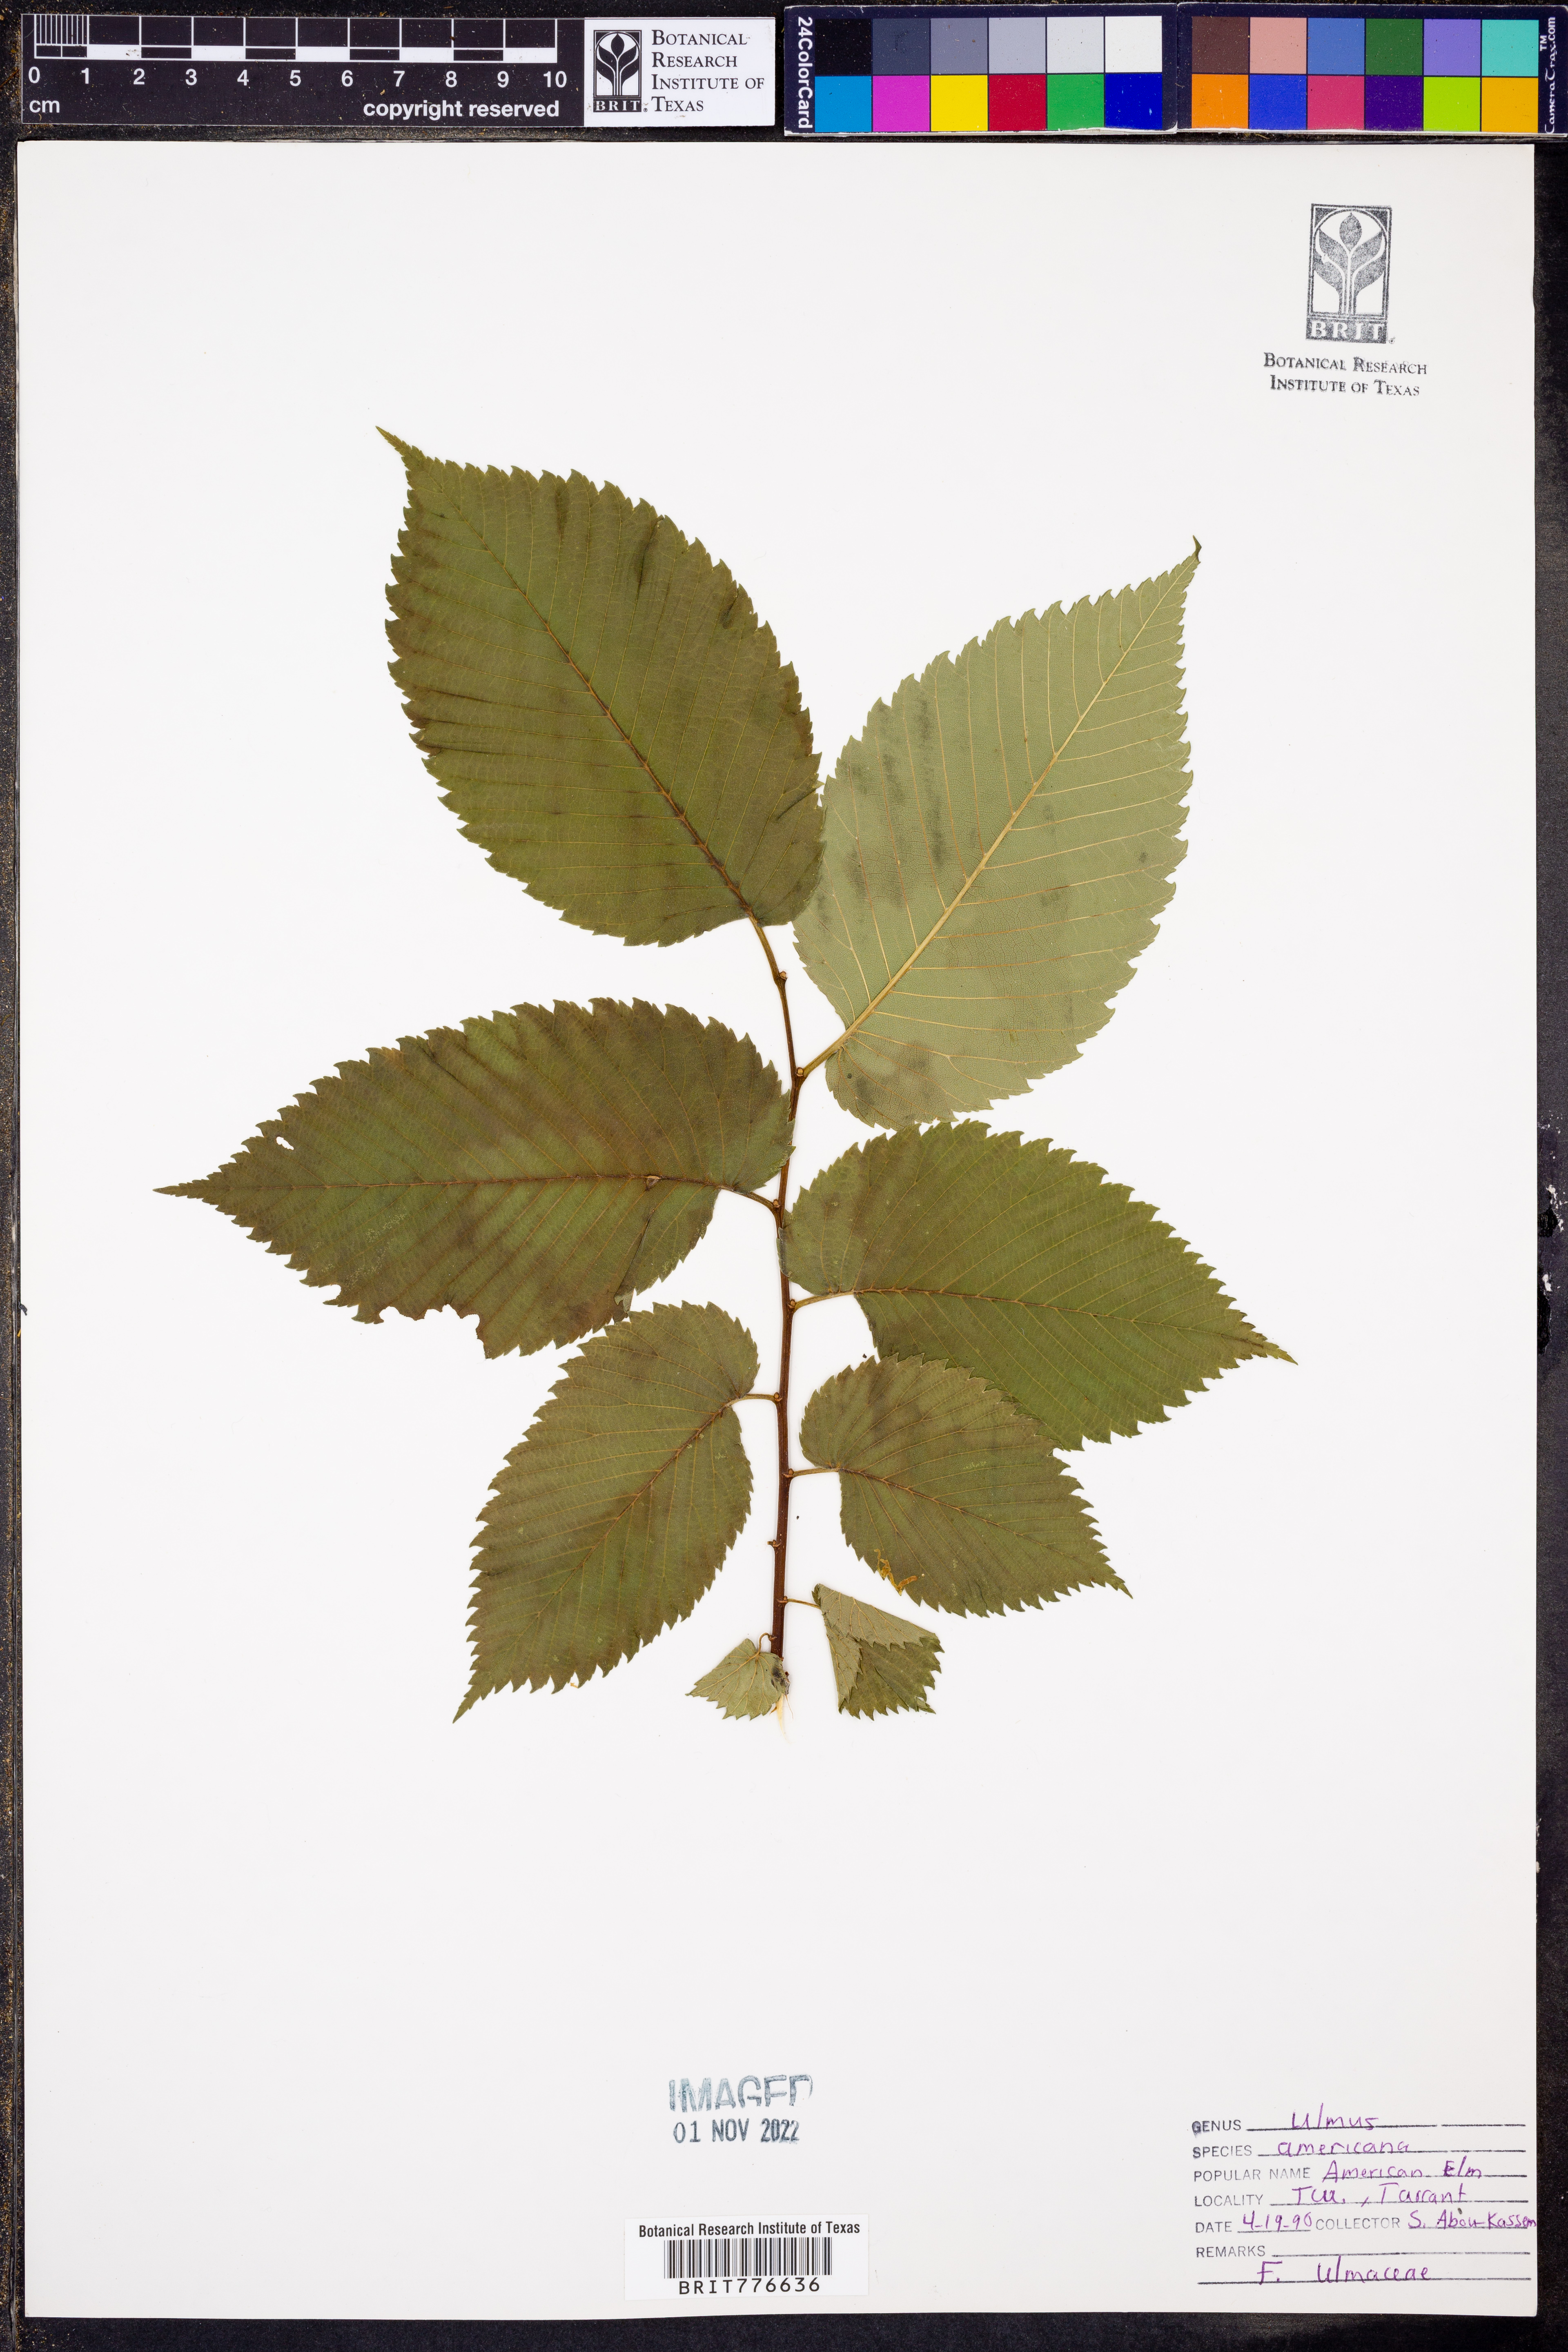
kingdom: Plantae
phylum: Tracheophyta
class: Magnoliopsida
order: Rosales
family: Ulmaceae
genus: Ulmus
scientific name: Ulmus americana
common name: American elm
